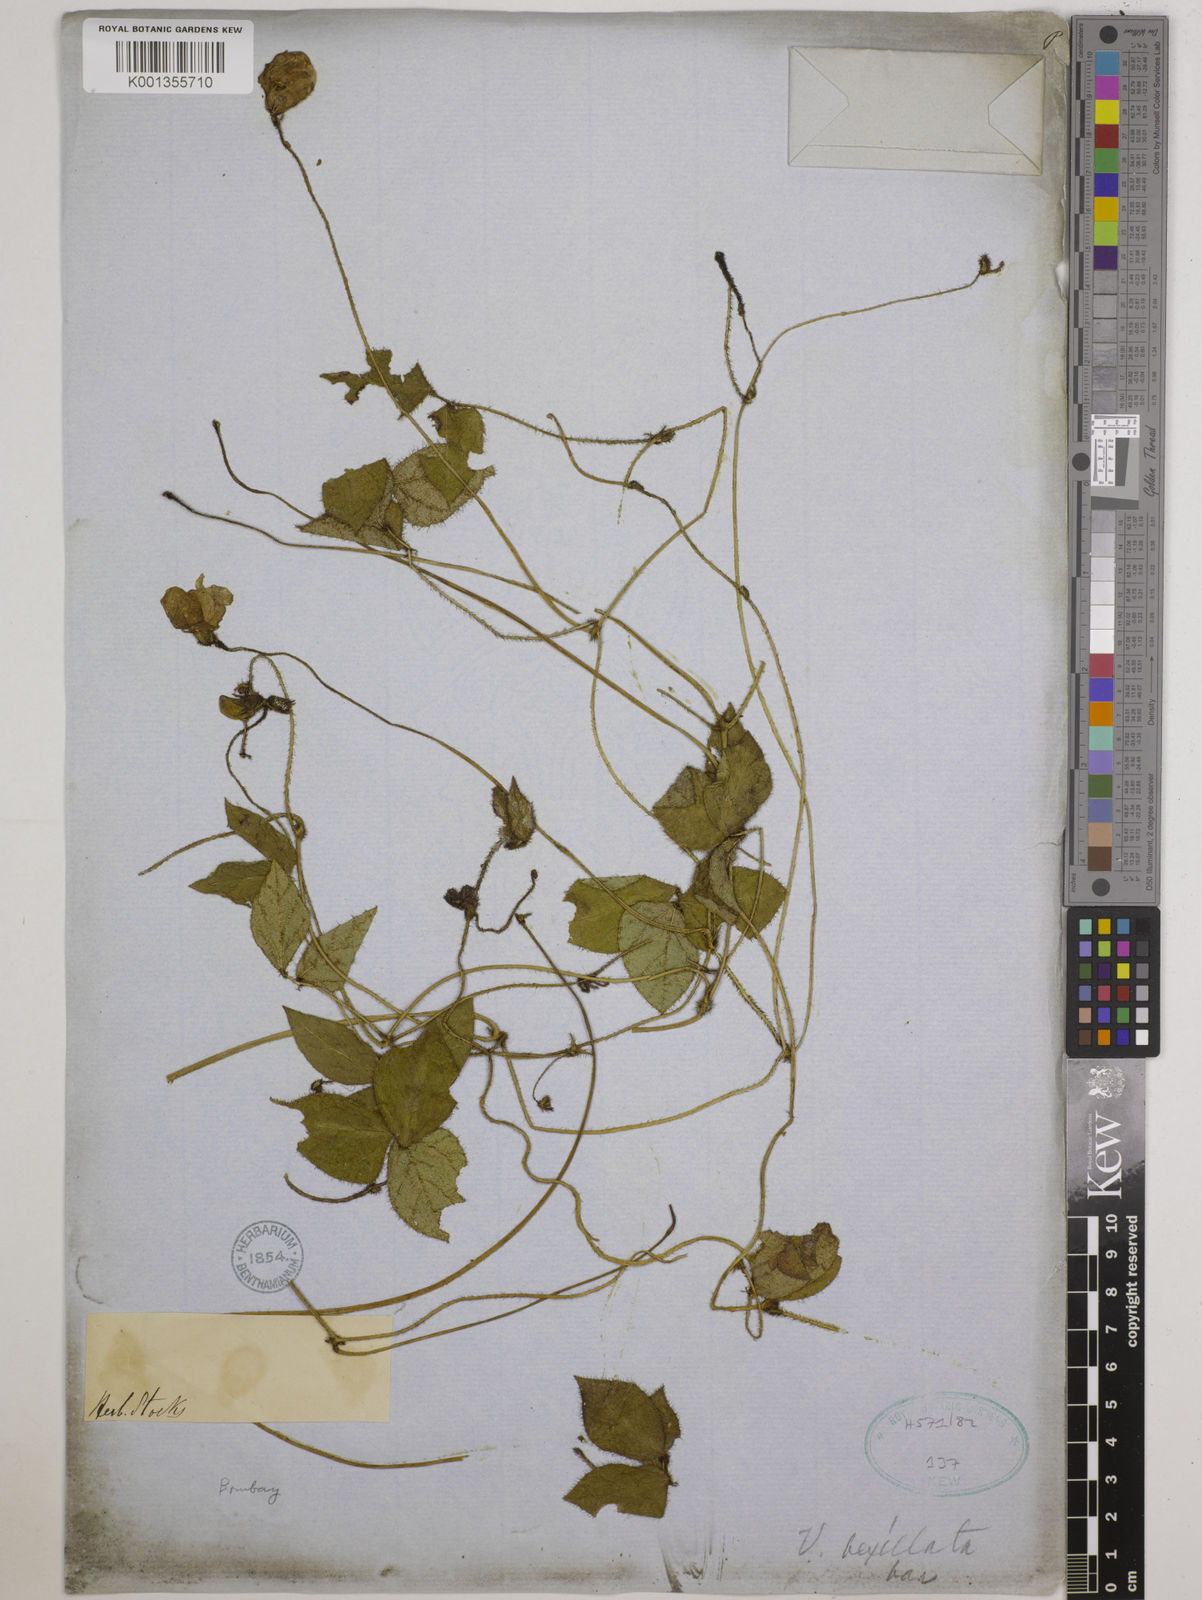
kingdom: Plantae
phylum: Tracheophyta
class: Magnoliopsida
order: Fabales
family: Fabaceae
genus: Vigna
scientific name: Vigna vexillata
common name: Zombi pea
